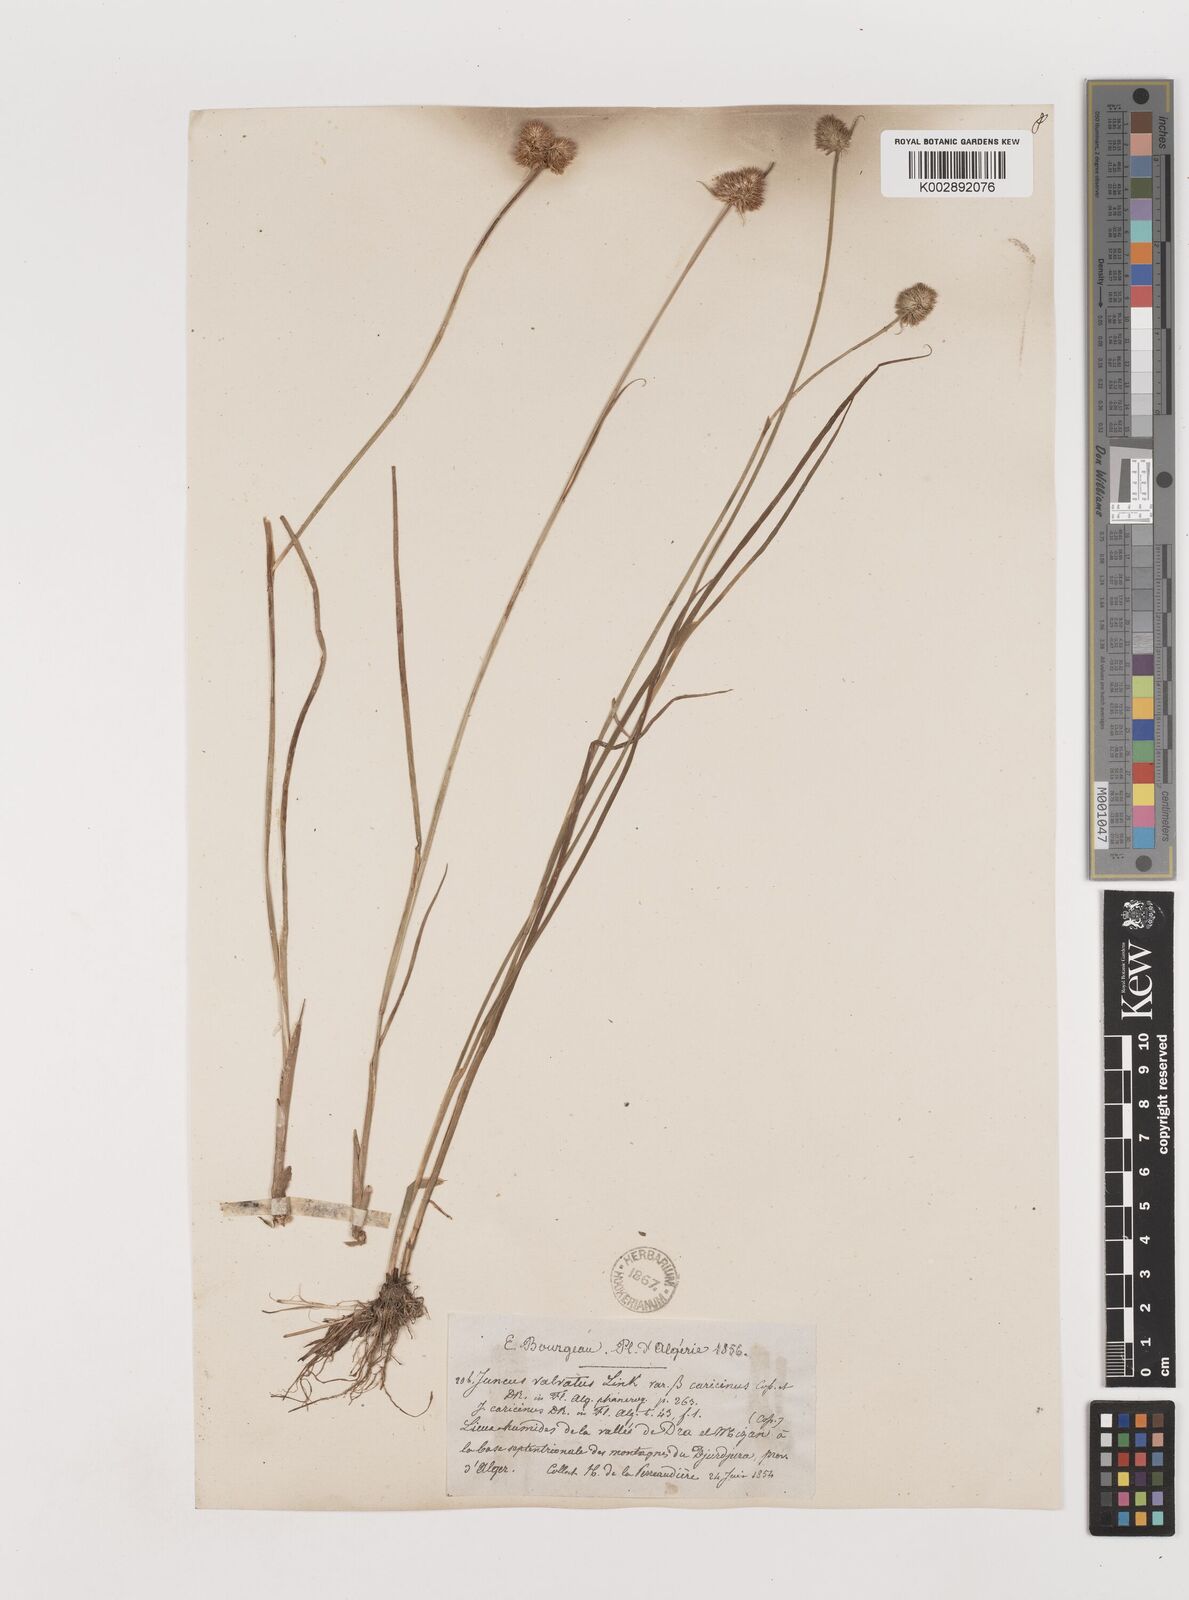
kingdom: Plantae
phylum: Tracheophyta
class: Liliopsida
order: Poales
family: Juncaceae
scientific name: Juncaceae
